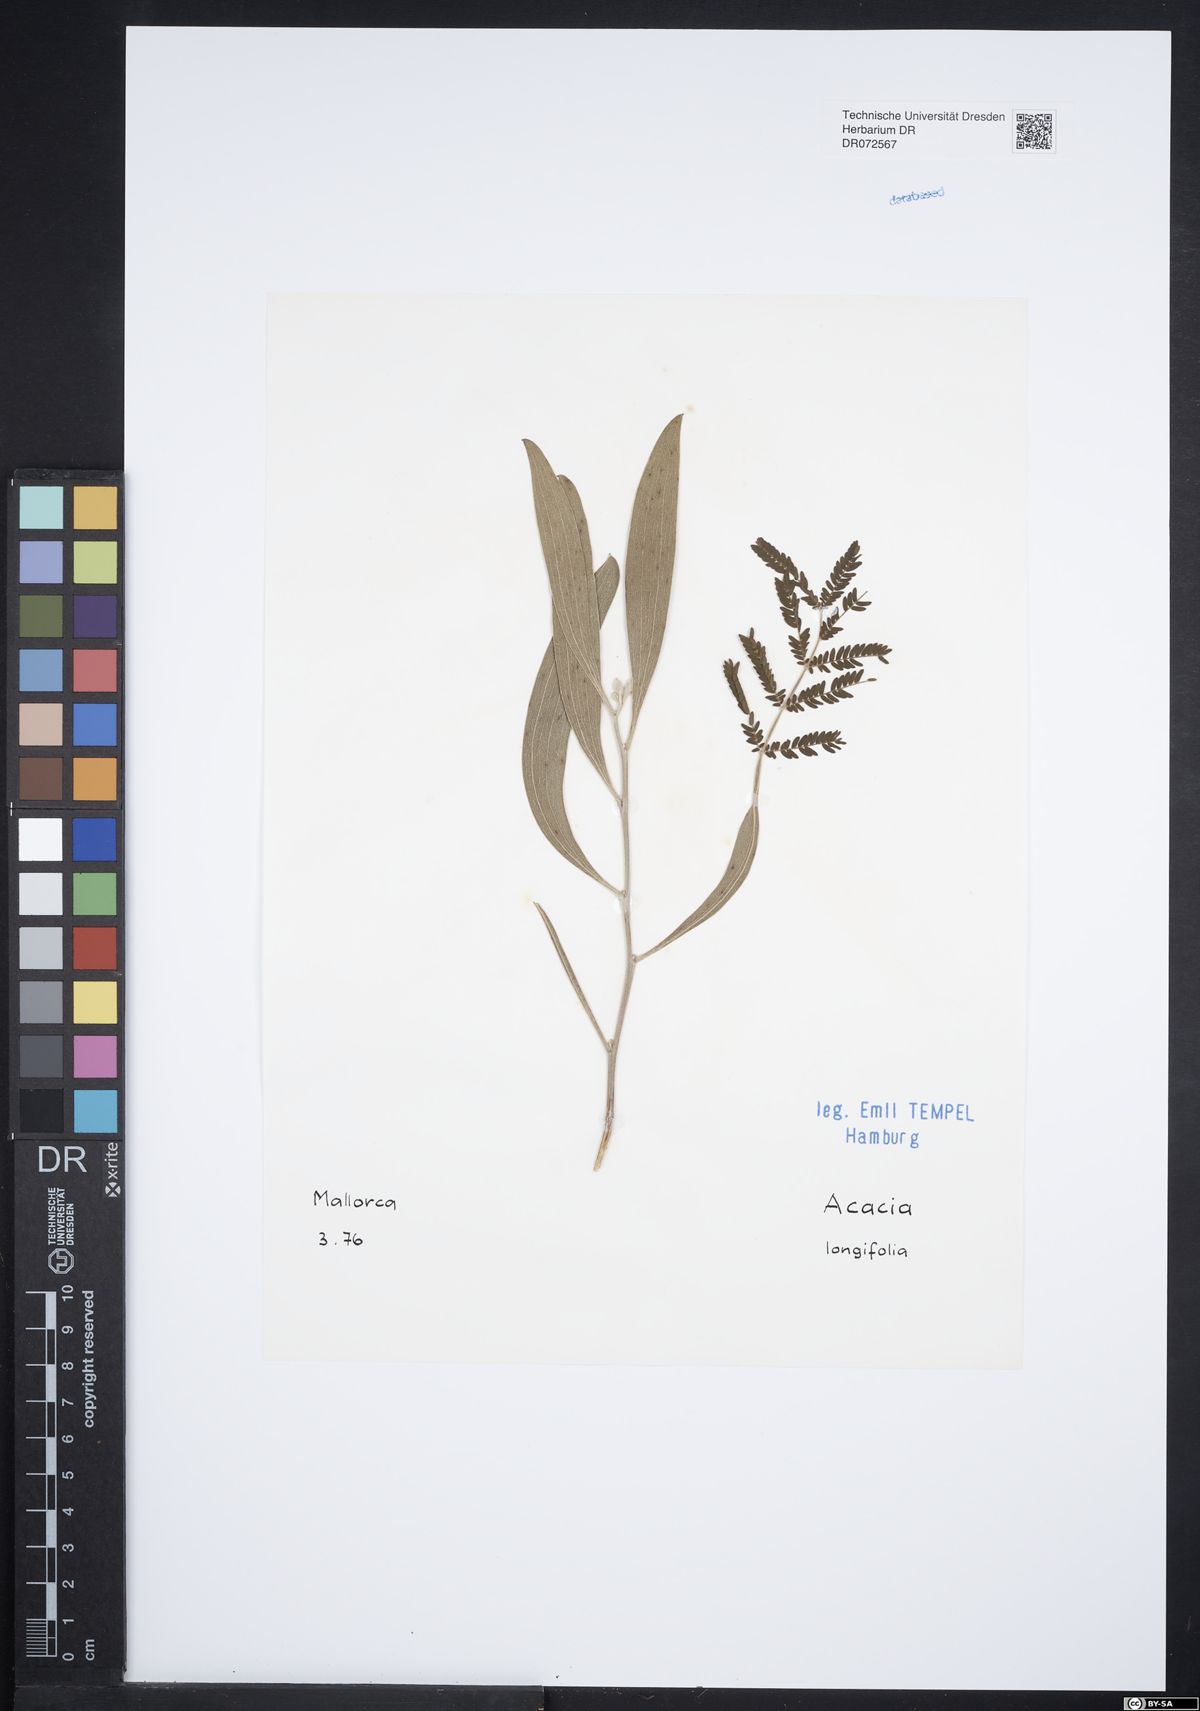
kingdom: Plantae
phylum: Tracheophyta
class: Magnoliopsida
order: Fabales
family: Fabaceae
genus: Acacia
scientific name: Acacia longifolia
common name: Sydney golden wattle
